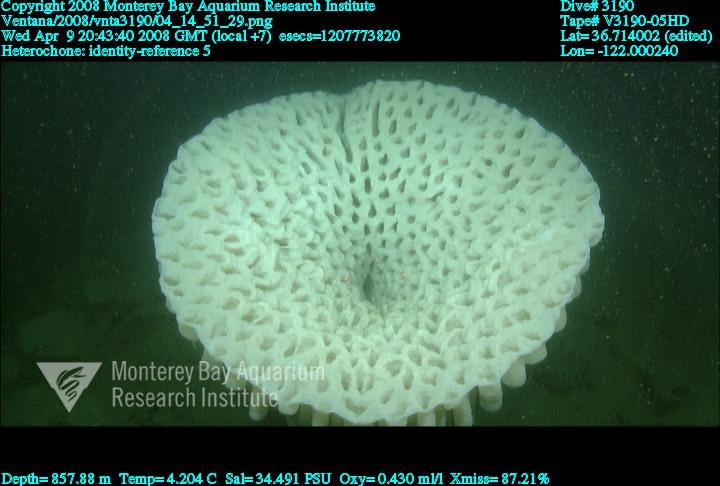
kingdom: Animalia
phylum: Porifera
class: Hexactinellida
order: Sceptrulophora
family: Aphrocallistidae
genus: Heterochone
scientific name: Heterochone
